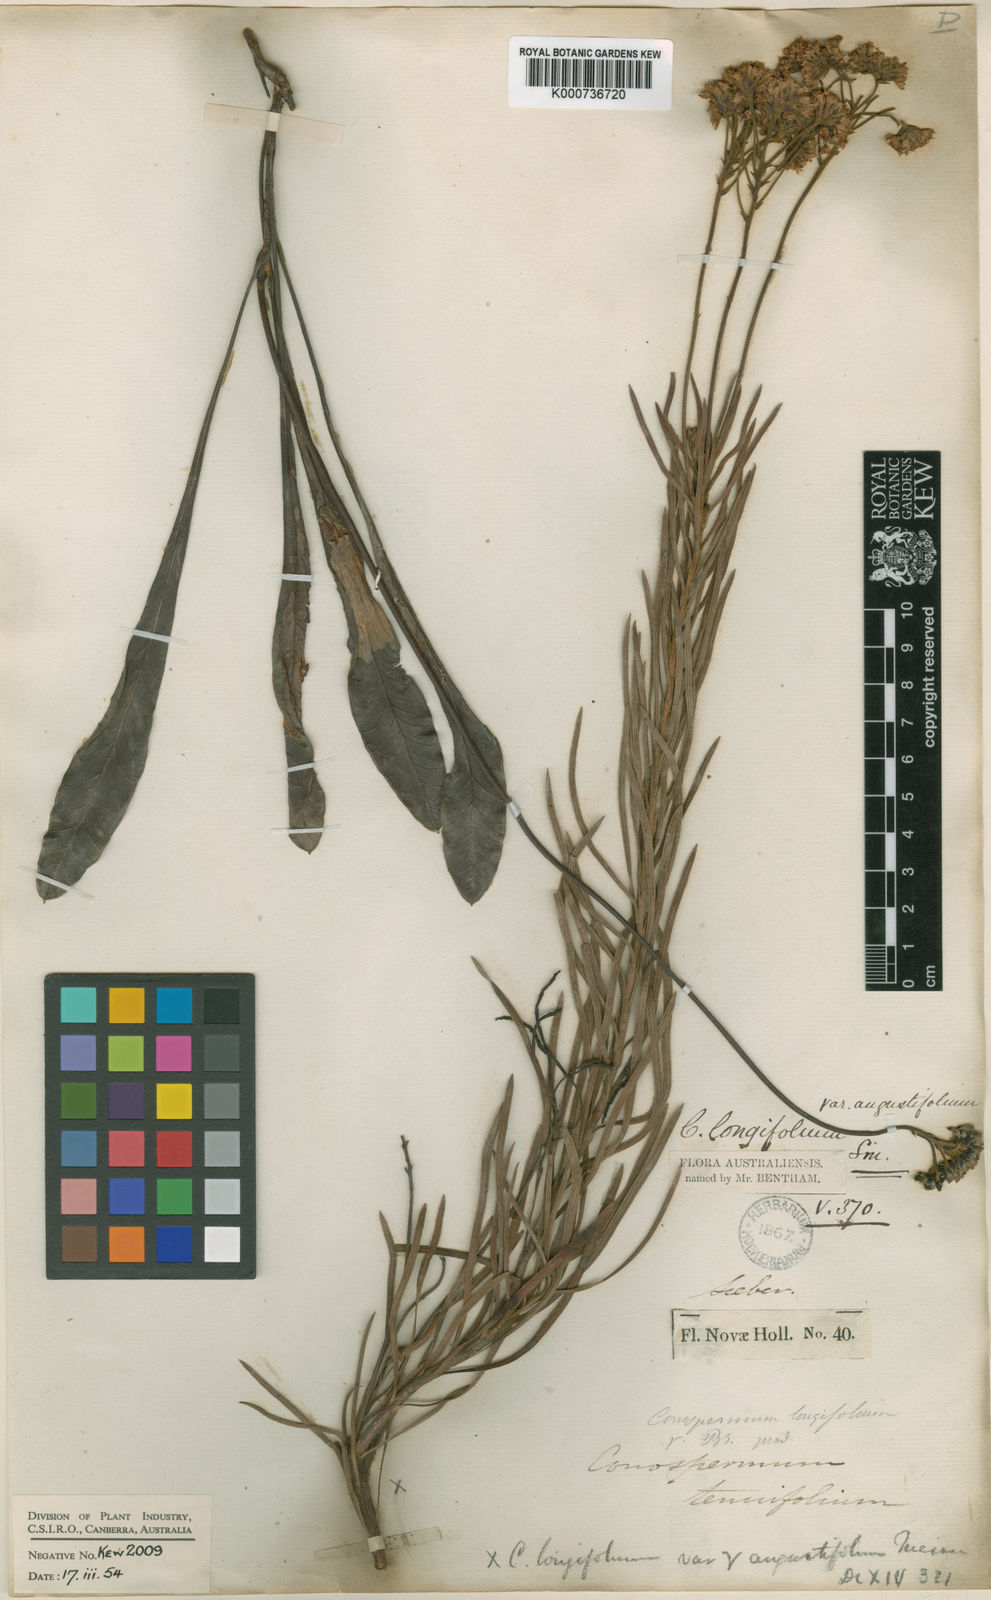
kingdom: Plantae
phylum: Tracheophyta
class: Magnoliopsida
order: Proteales
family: Proteaceae
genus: Conospermum
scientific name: Conospermum longifolium
